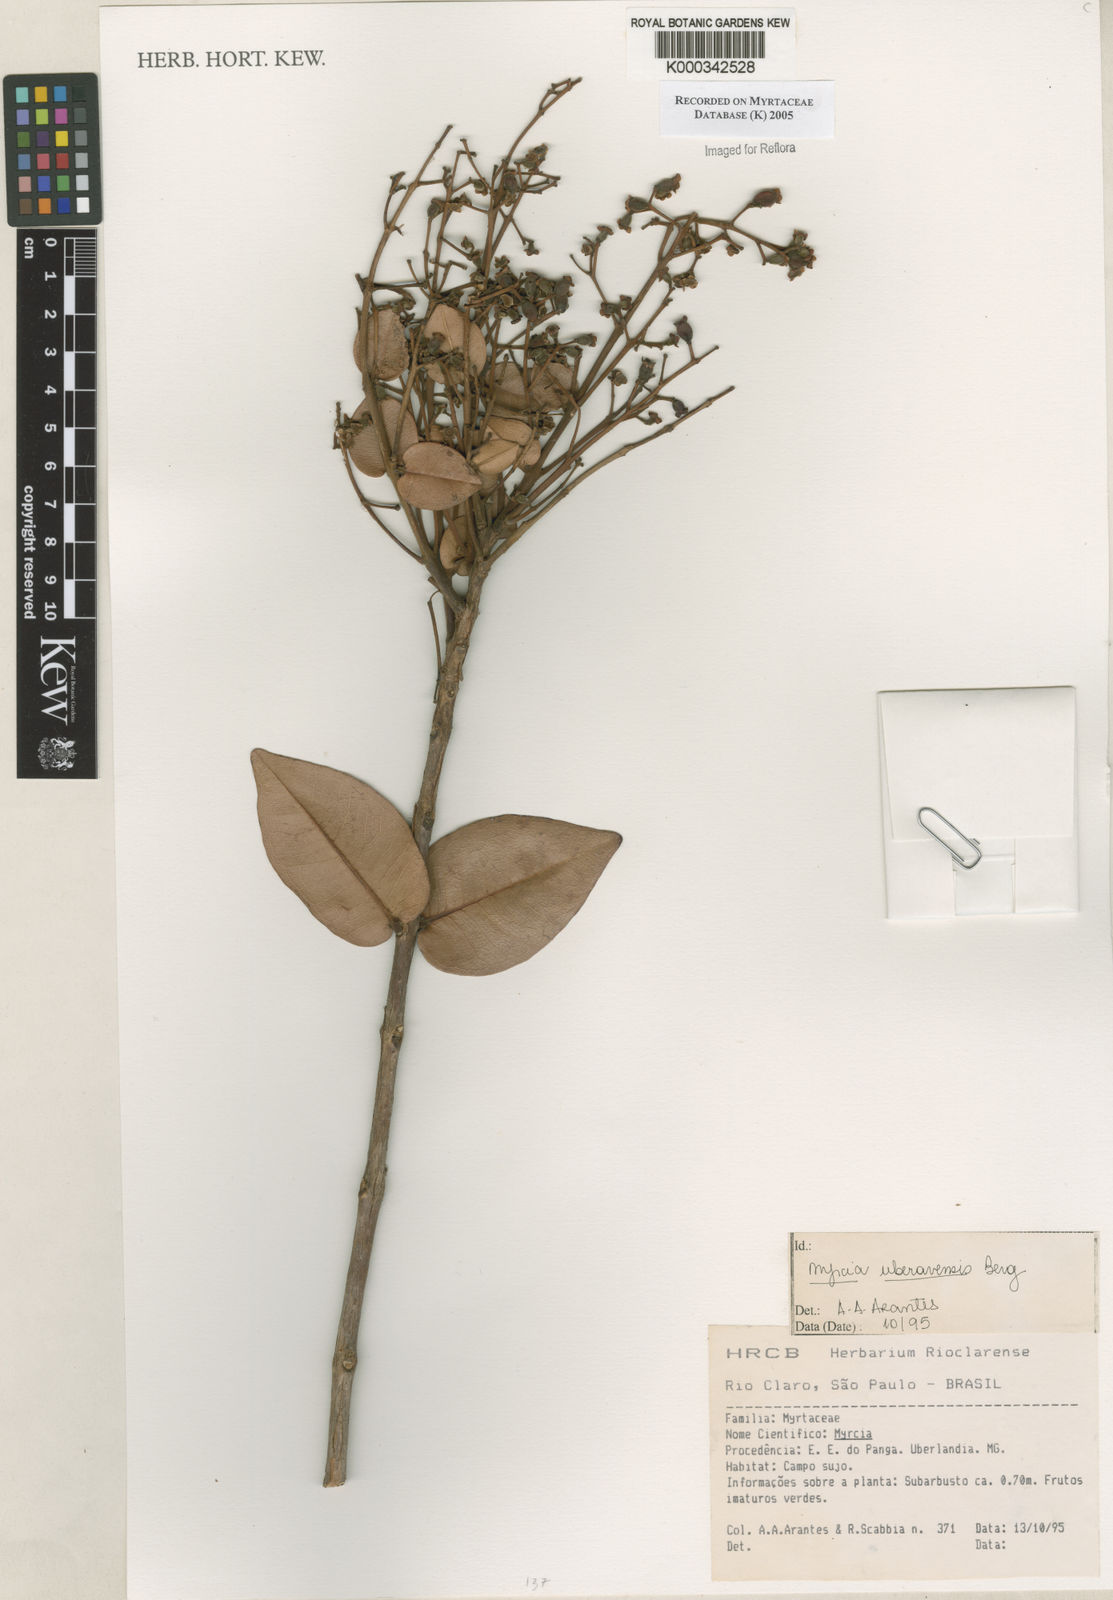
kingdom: Plantae
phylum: Tracheophyta
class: Magnoliopsida
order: Myrtales
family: Myrtaceae
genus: Myrcia
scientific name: Myrcia uberavensis
